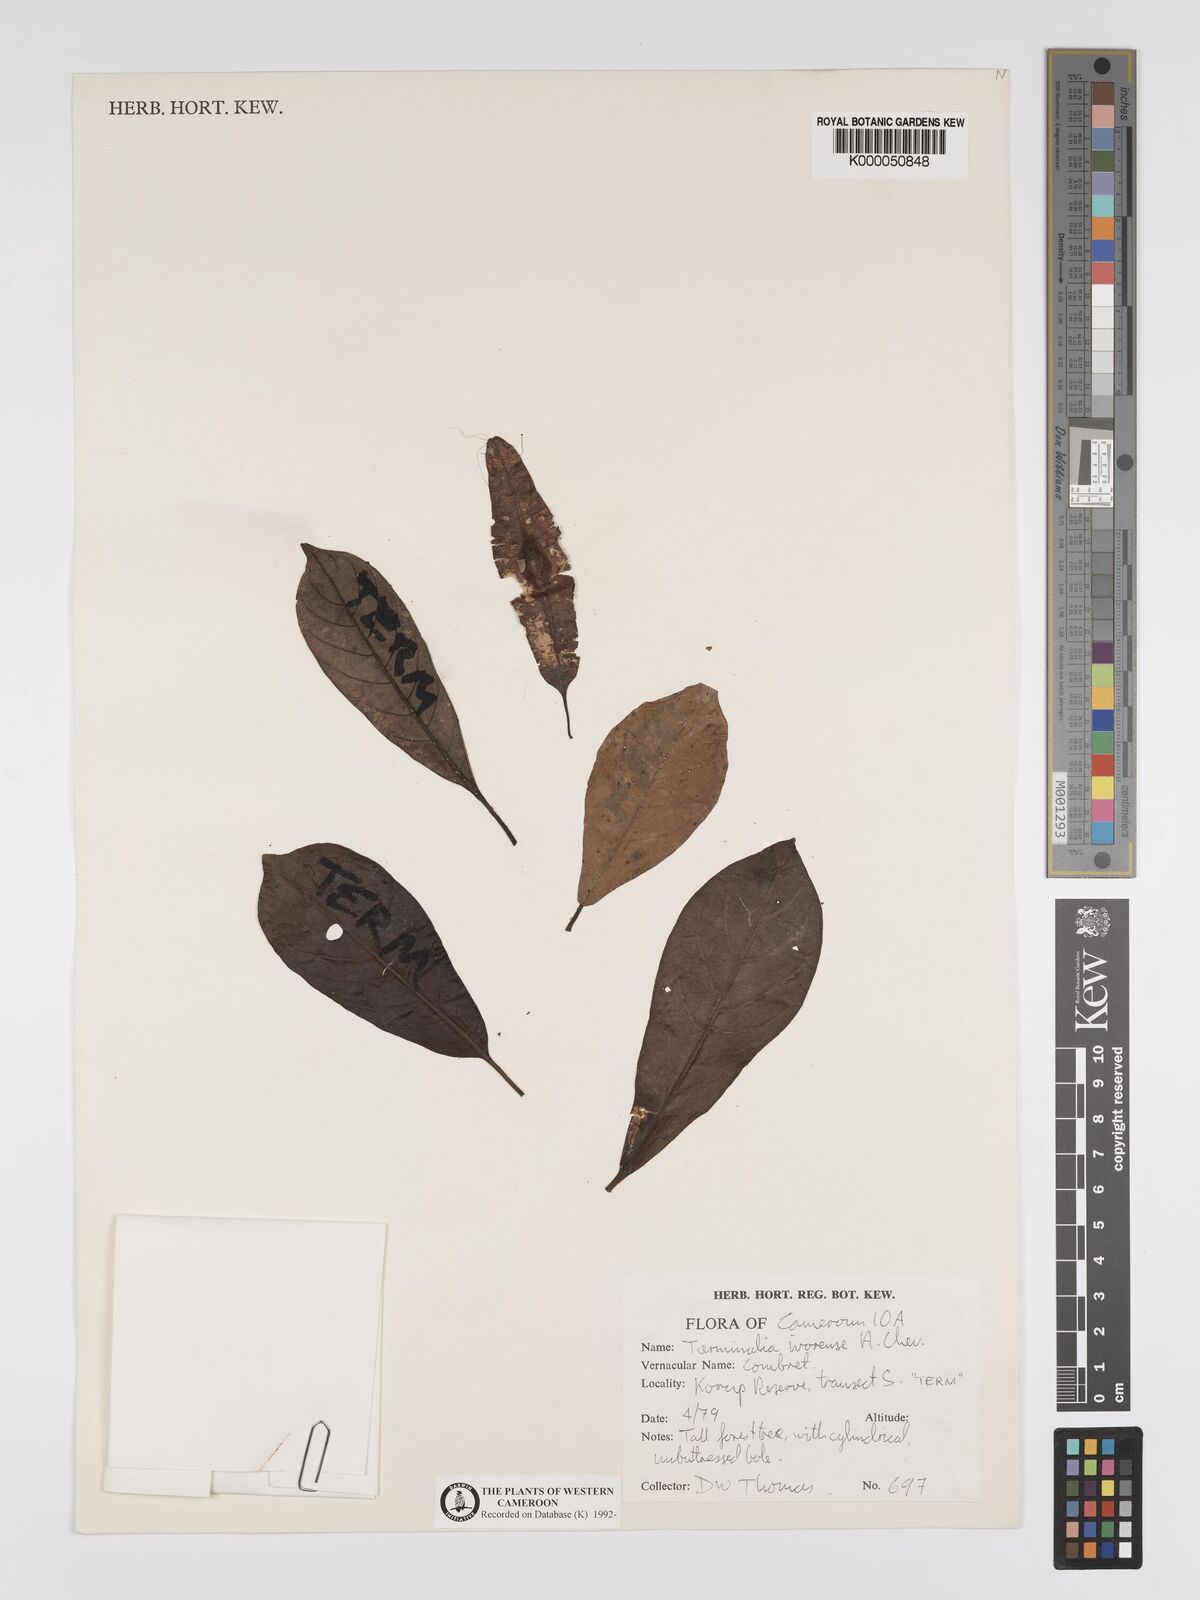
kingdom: Plantae
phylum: Tracheophyta
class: Magnoliopsida
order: Myrtales
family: Combretaceae
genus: Terminalia
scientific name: Terminalia ivorensis
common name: Black afara
